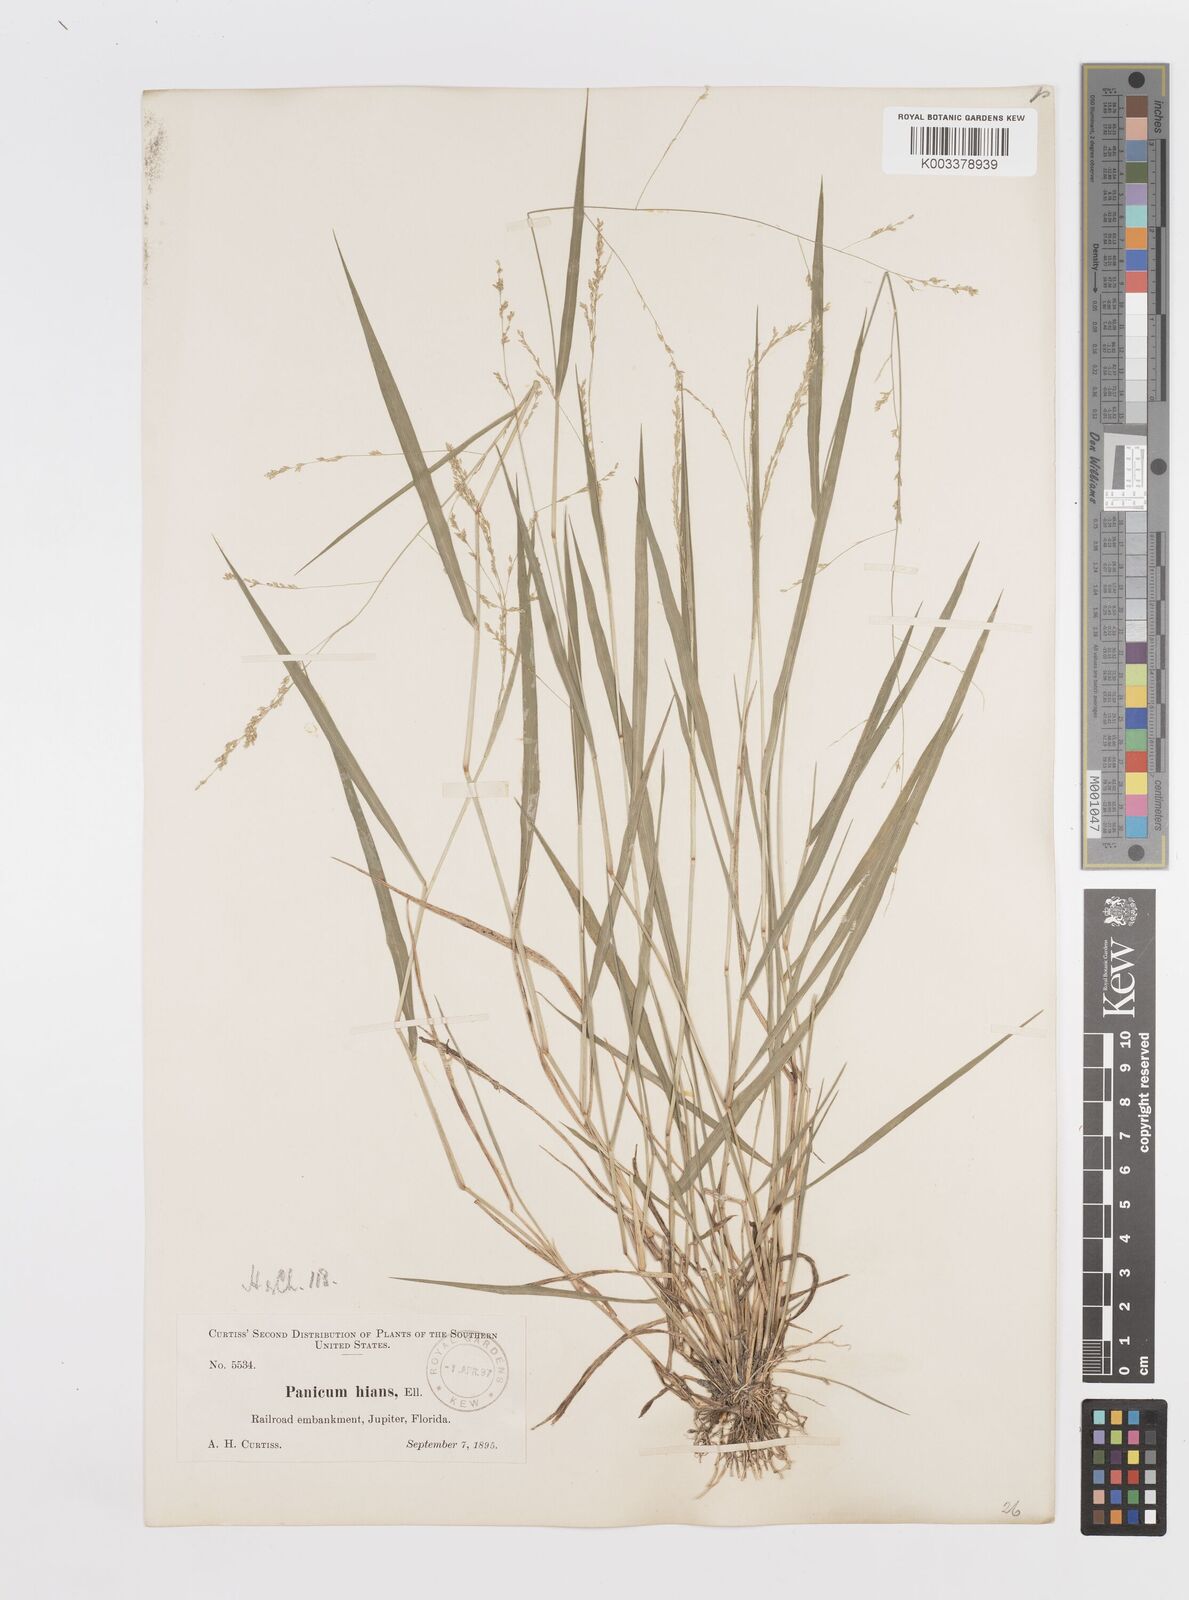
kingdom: Plantae
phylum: Tracheophyta
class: Liliopsida
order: Poales
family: Poaceae
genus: Steinchisma
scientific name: Steinchisma hians
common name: Gaping panic grass
